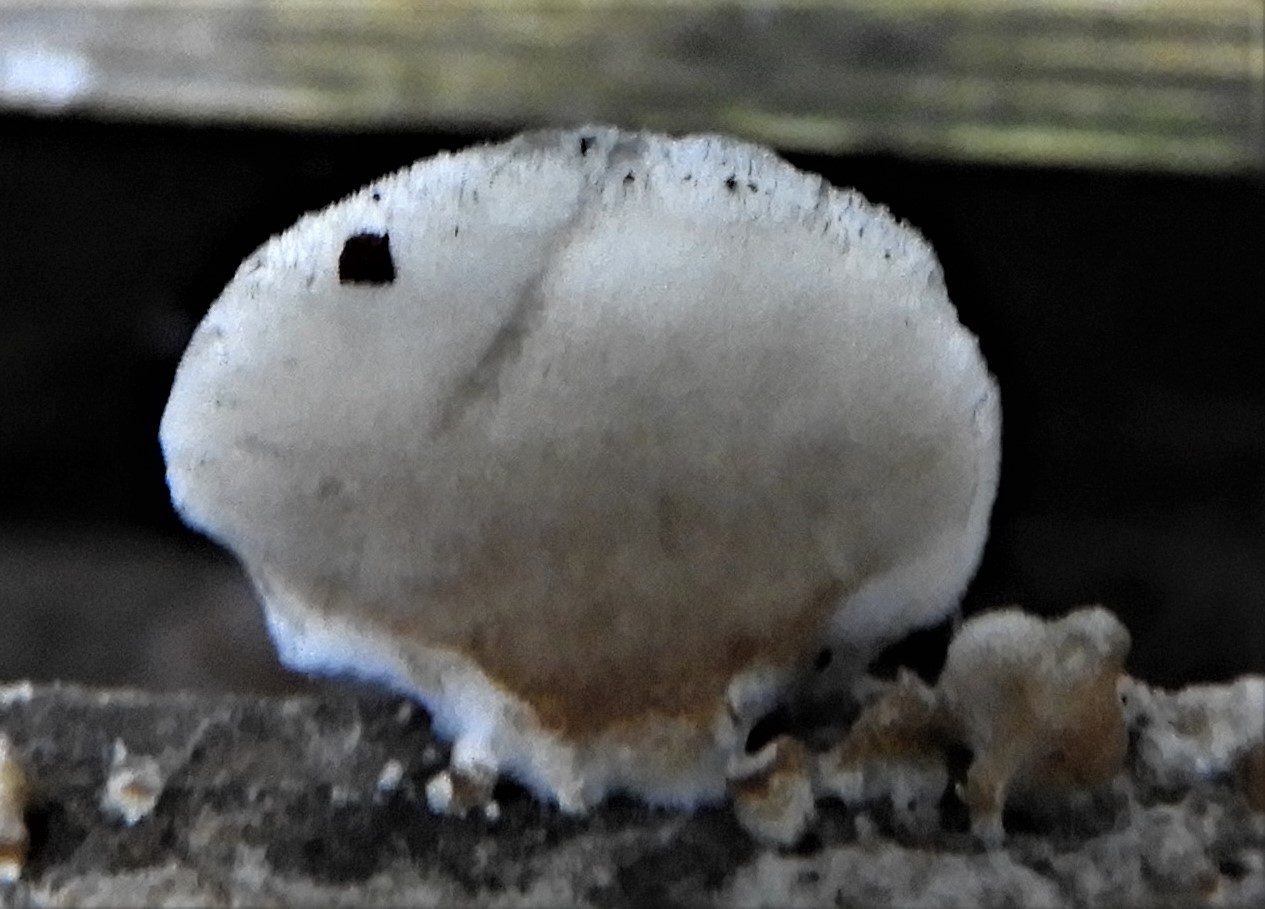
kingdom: Fungi
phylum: Basidiomycota
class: Agaricomycetes
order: Polyporales
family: Dacryobolaceae
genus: Postia
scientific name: Postia
